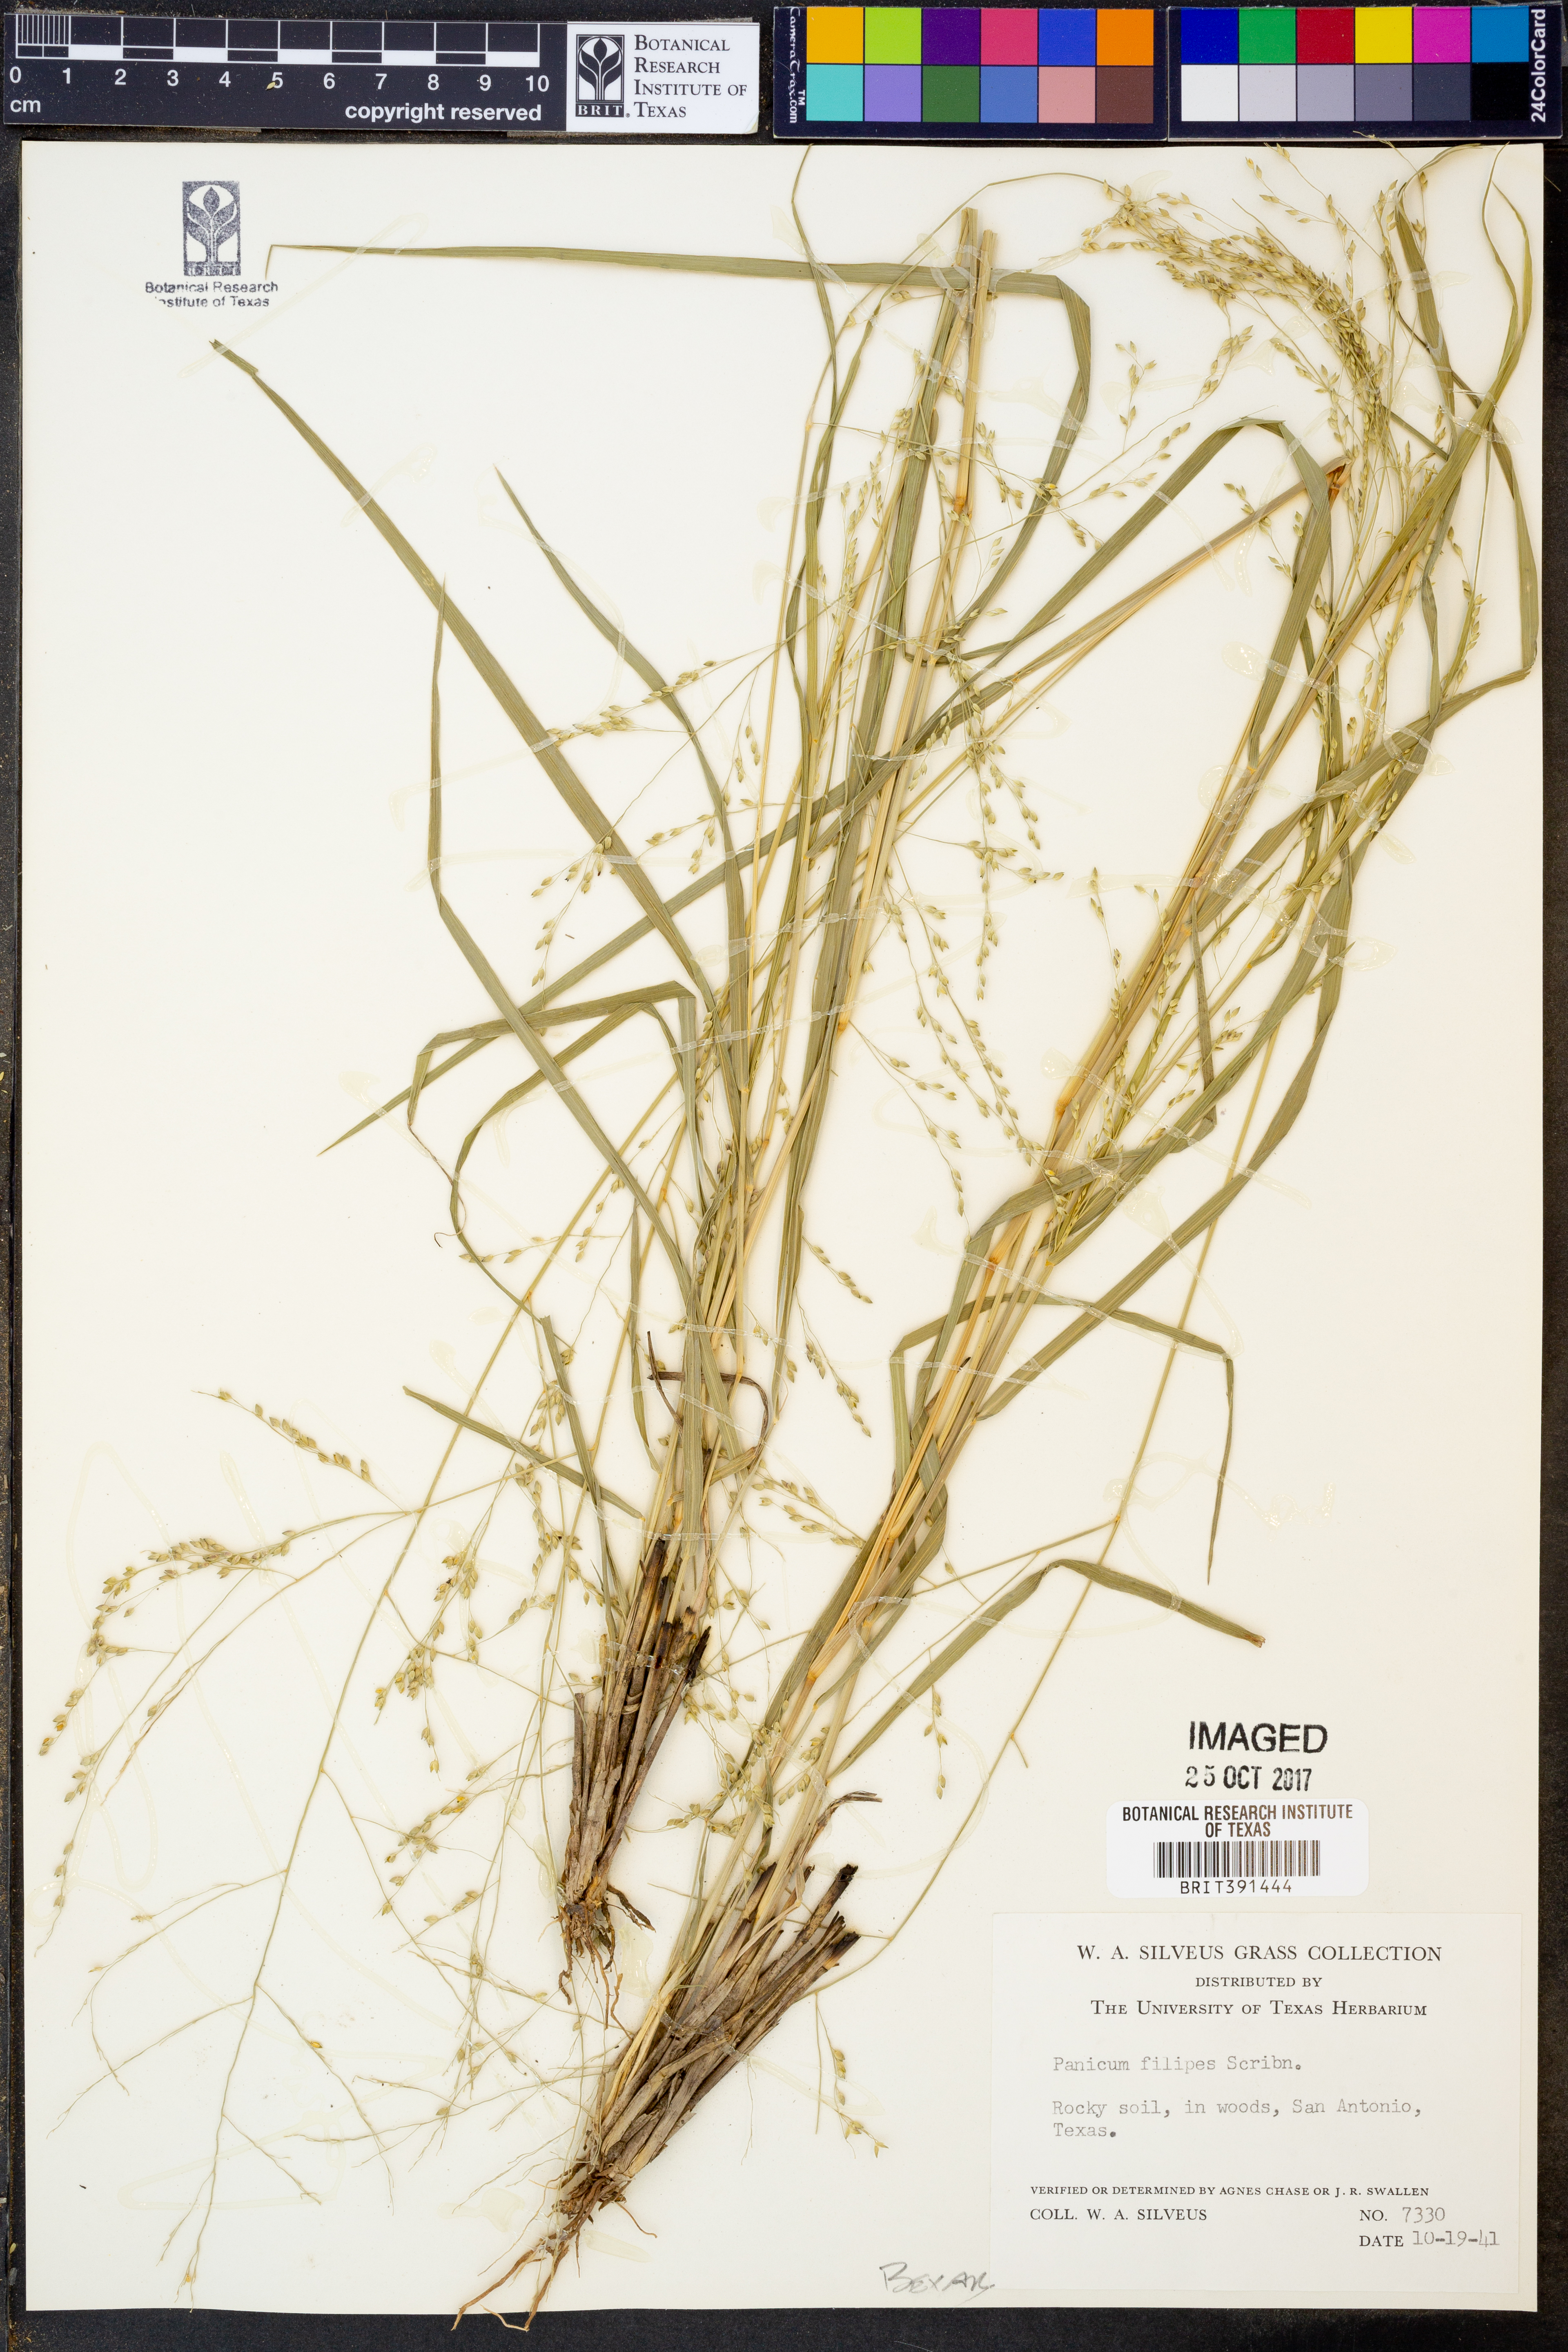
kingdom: Plantae
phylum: Tracheophyta
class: Liliopsida
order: Poales
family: Poaceae
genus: Panicum
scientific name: Panicum hallii
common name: Hall's witchgrass
